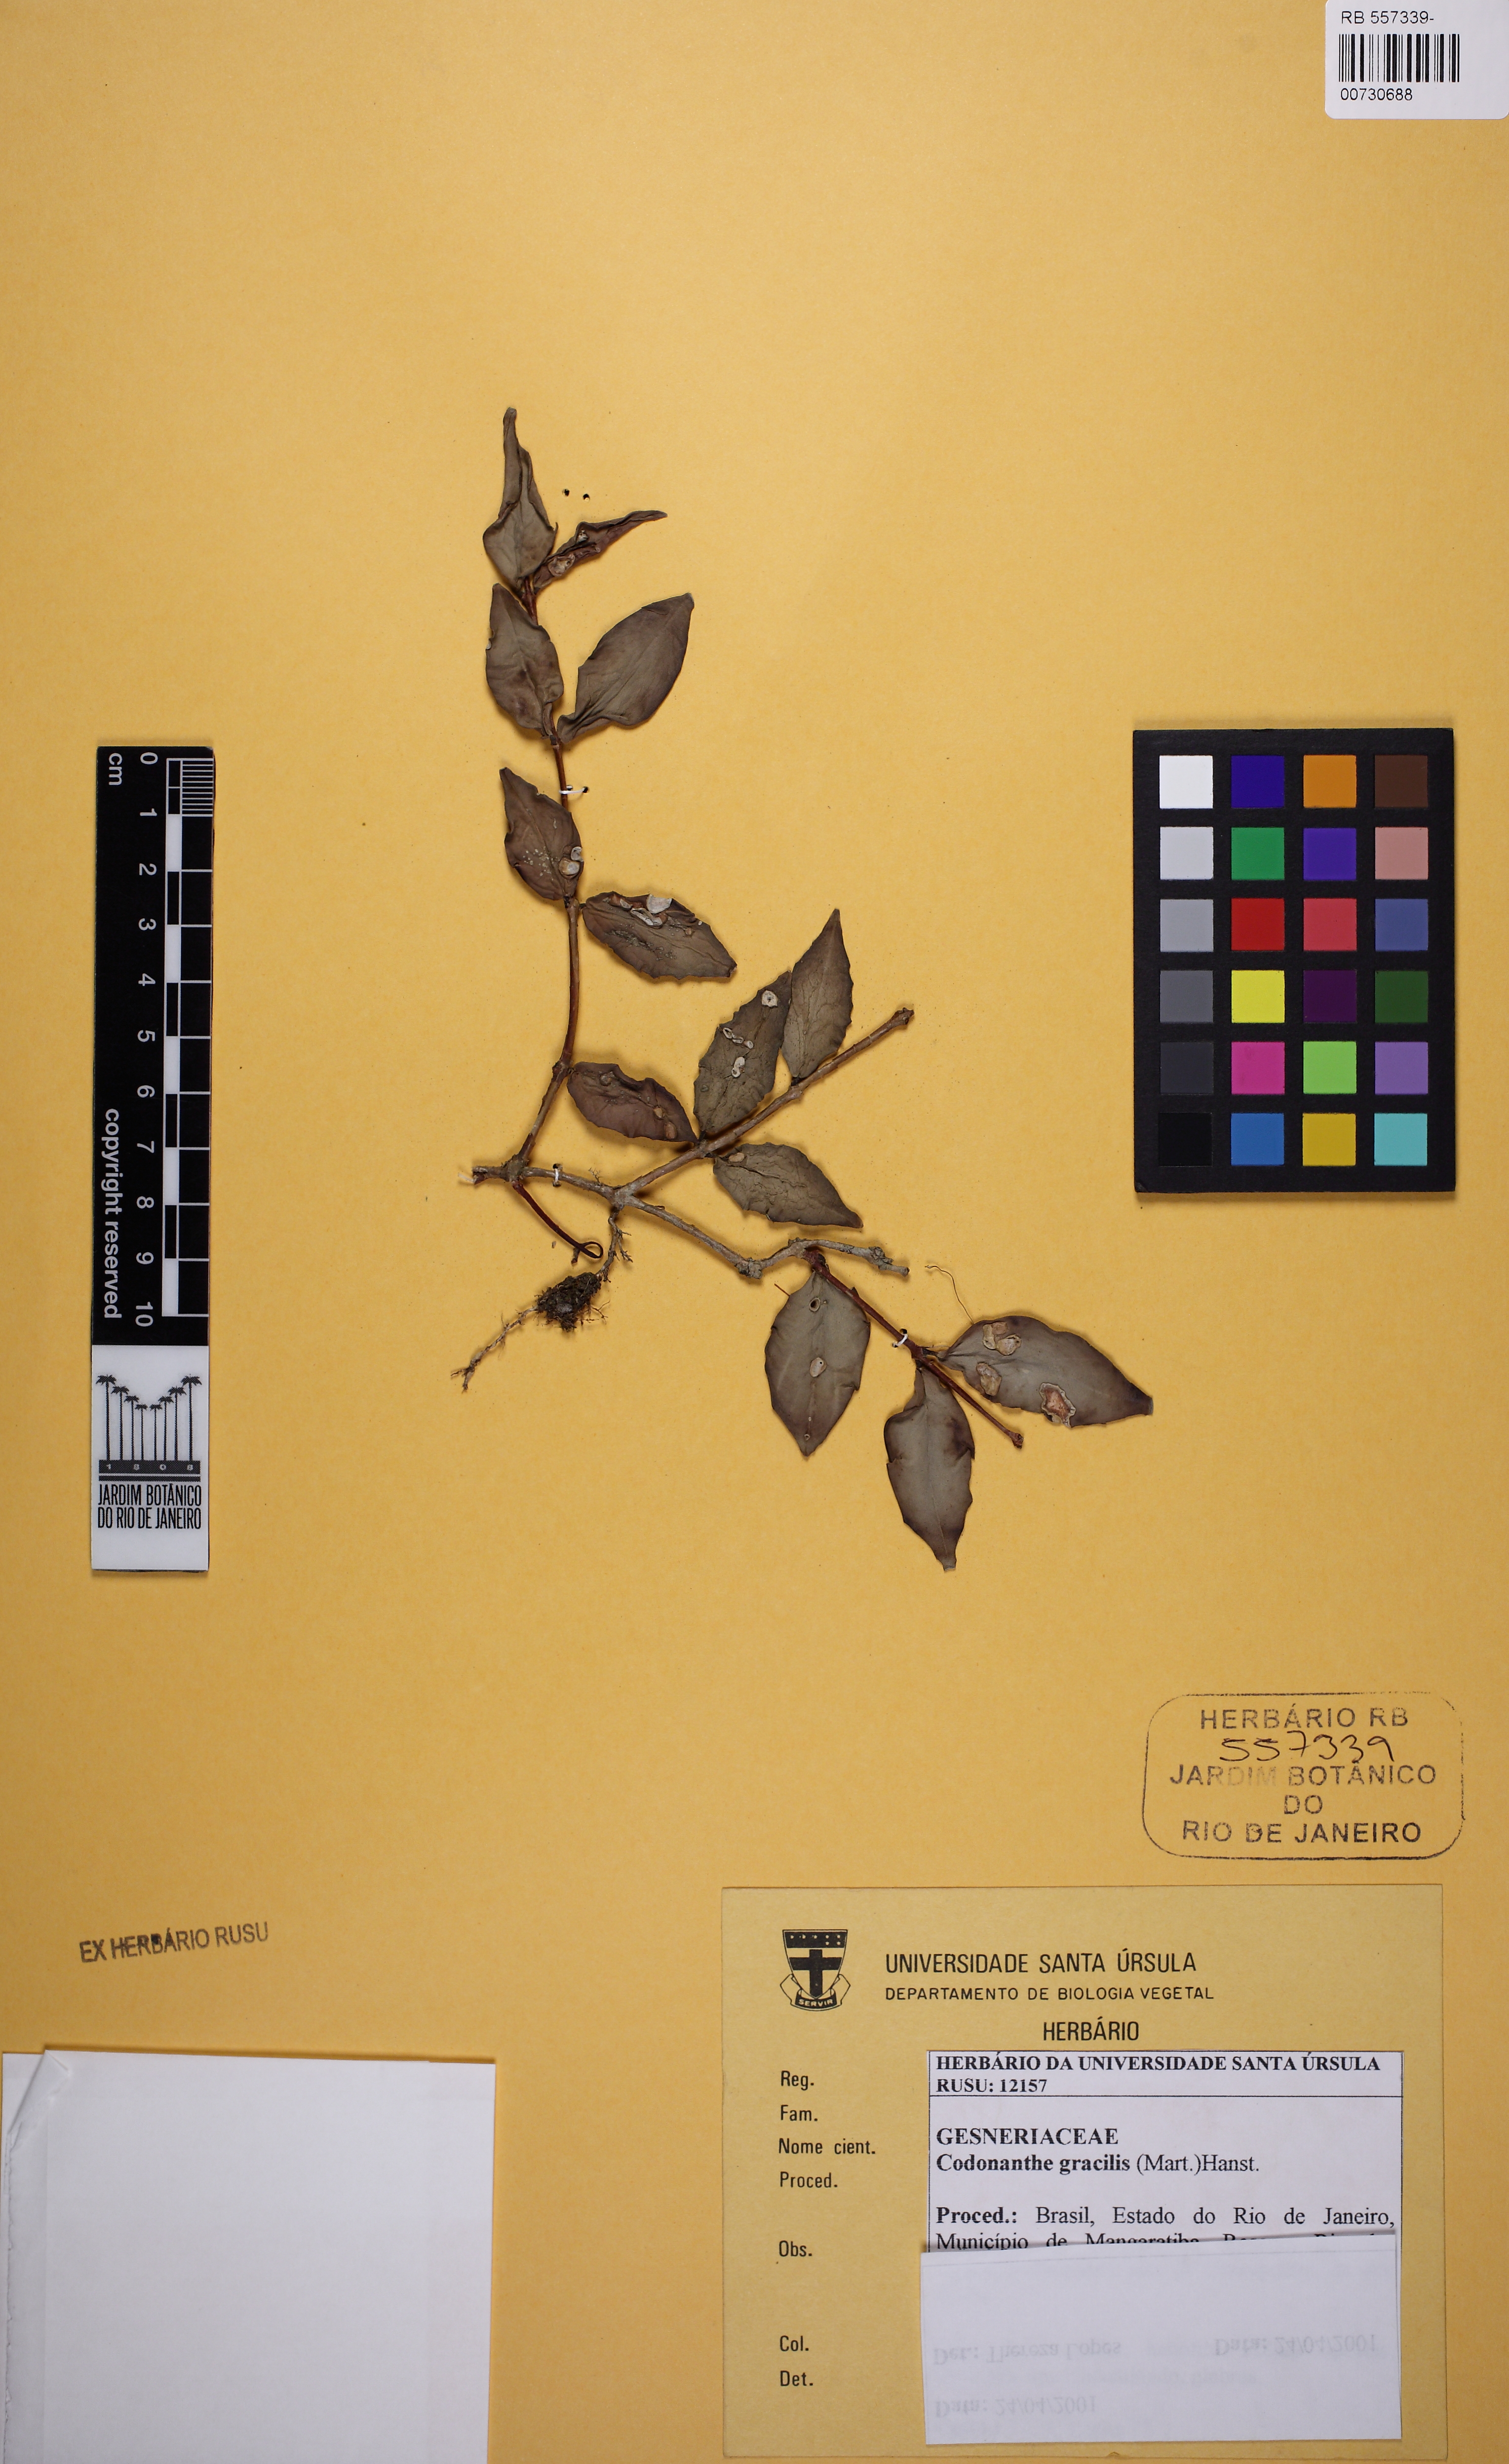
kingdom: Plantae
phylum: Tracheophyta
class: Magnoliopsida
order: Lamiales
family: Gesneriaceae
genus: Codonanthe
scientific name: Codonanthe gracilis
